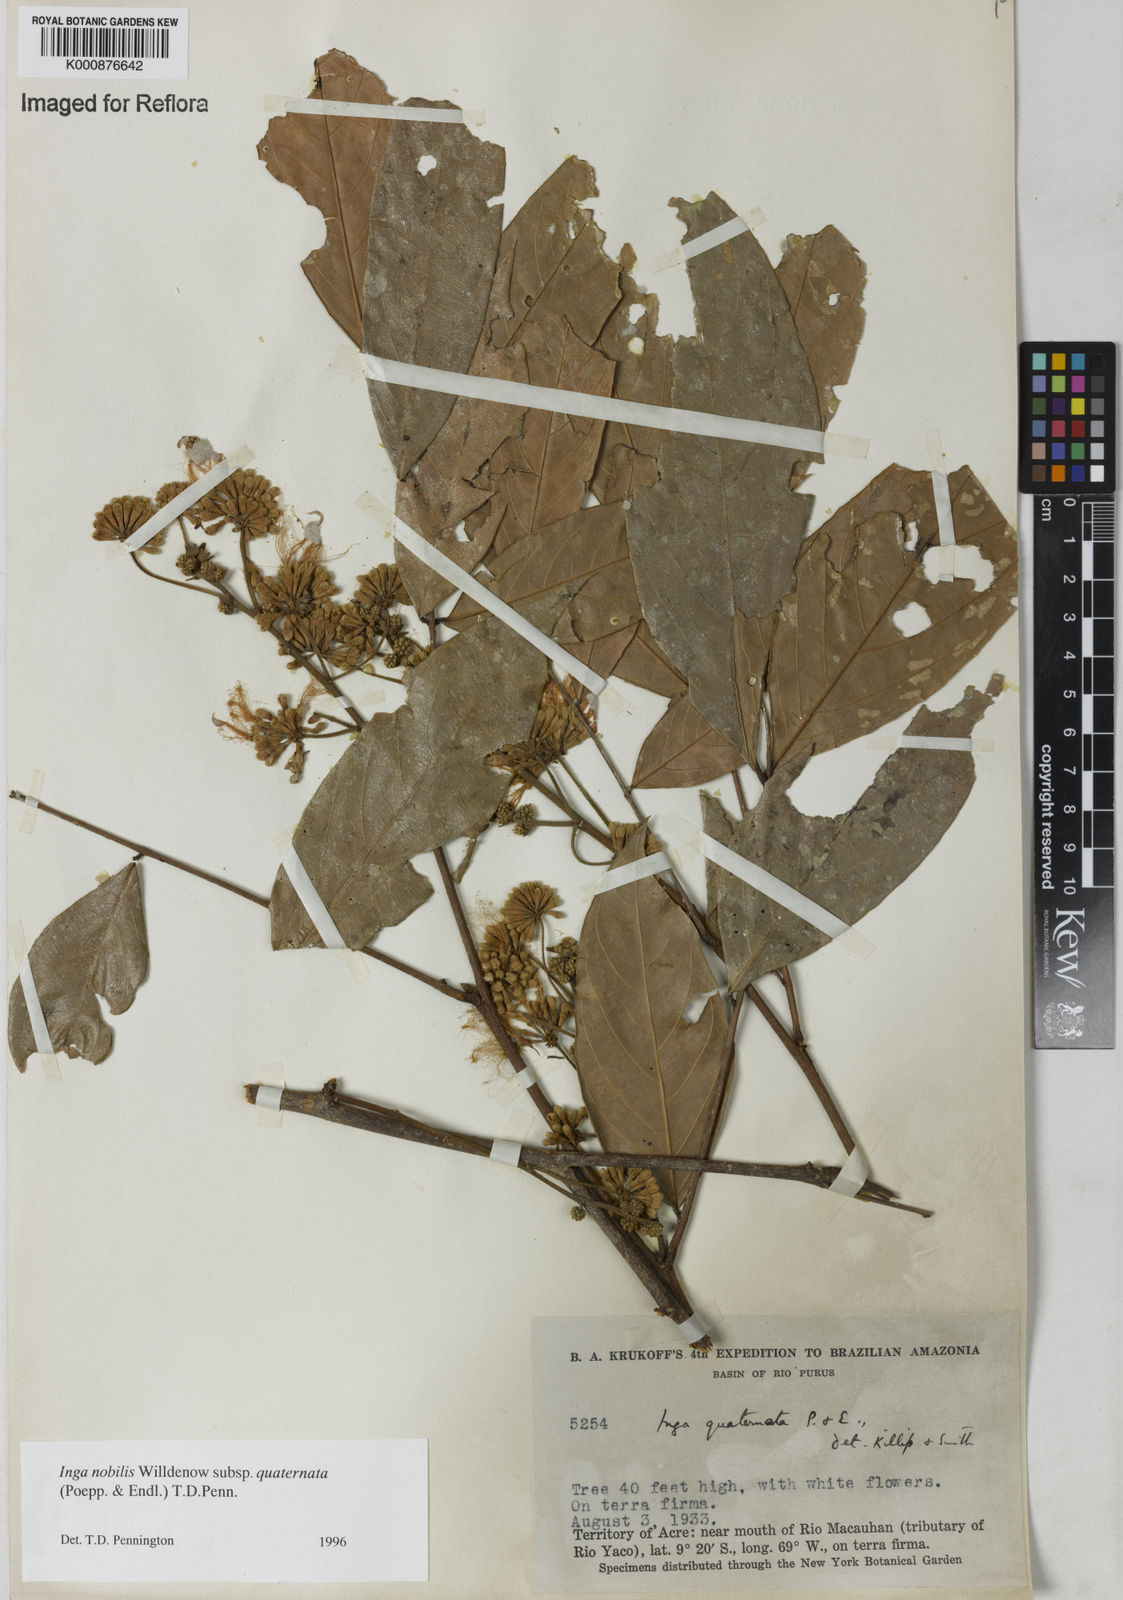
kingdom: Plantae
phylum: Tracheophyta
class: Magnoliopsida
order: Fabales
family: Fabaceae
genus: Inga
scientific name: Inga nobilis
